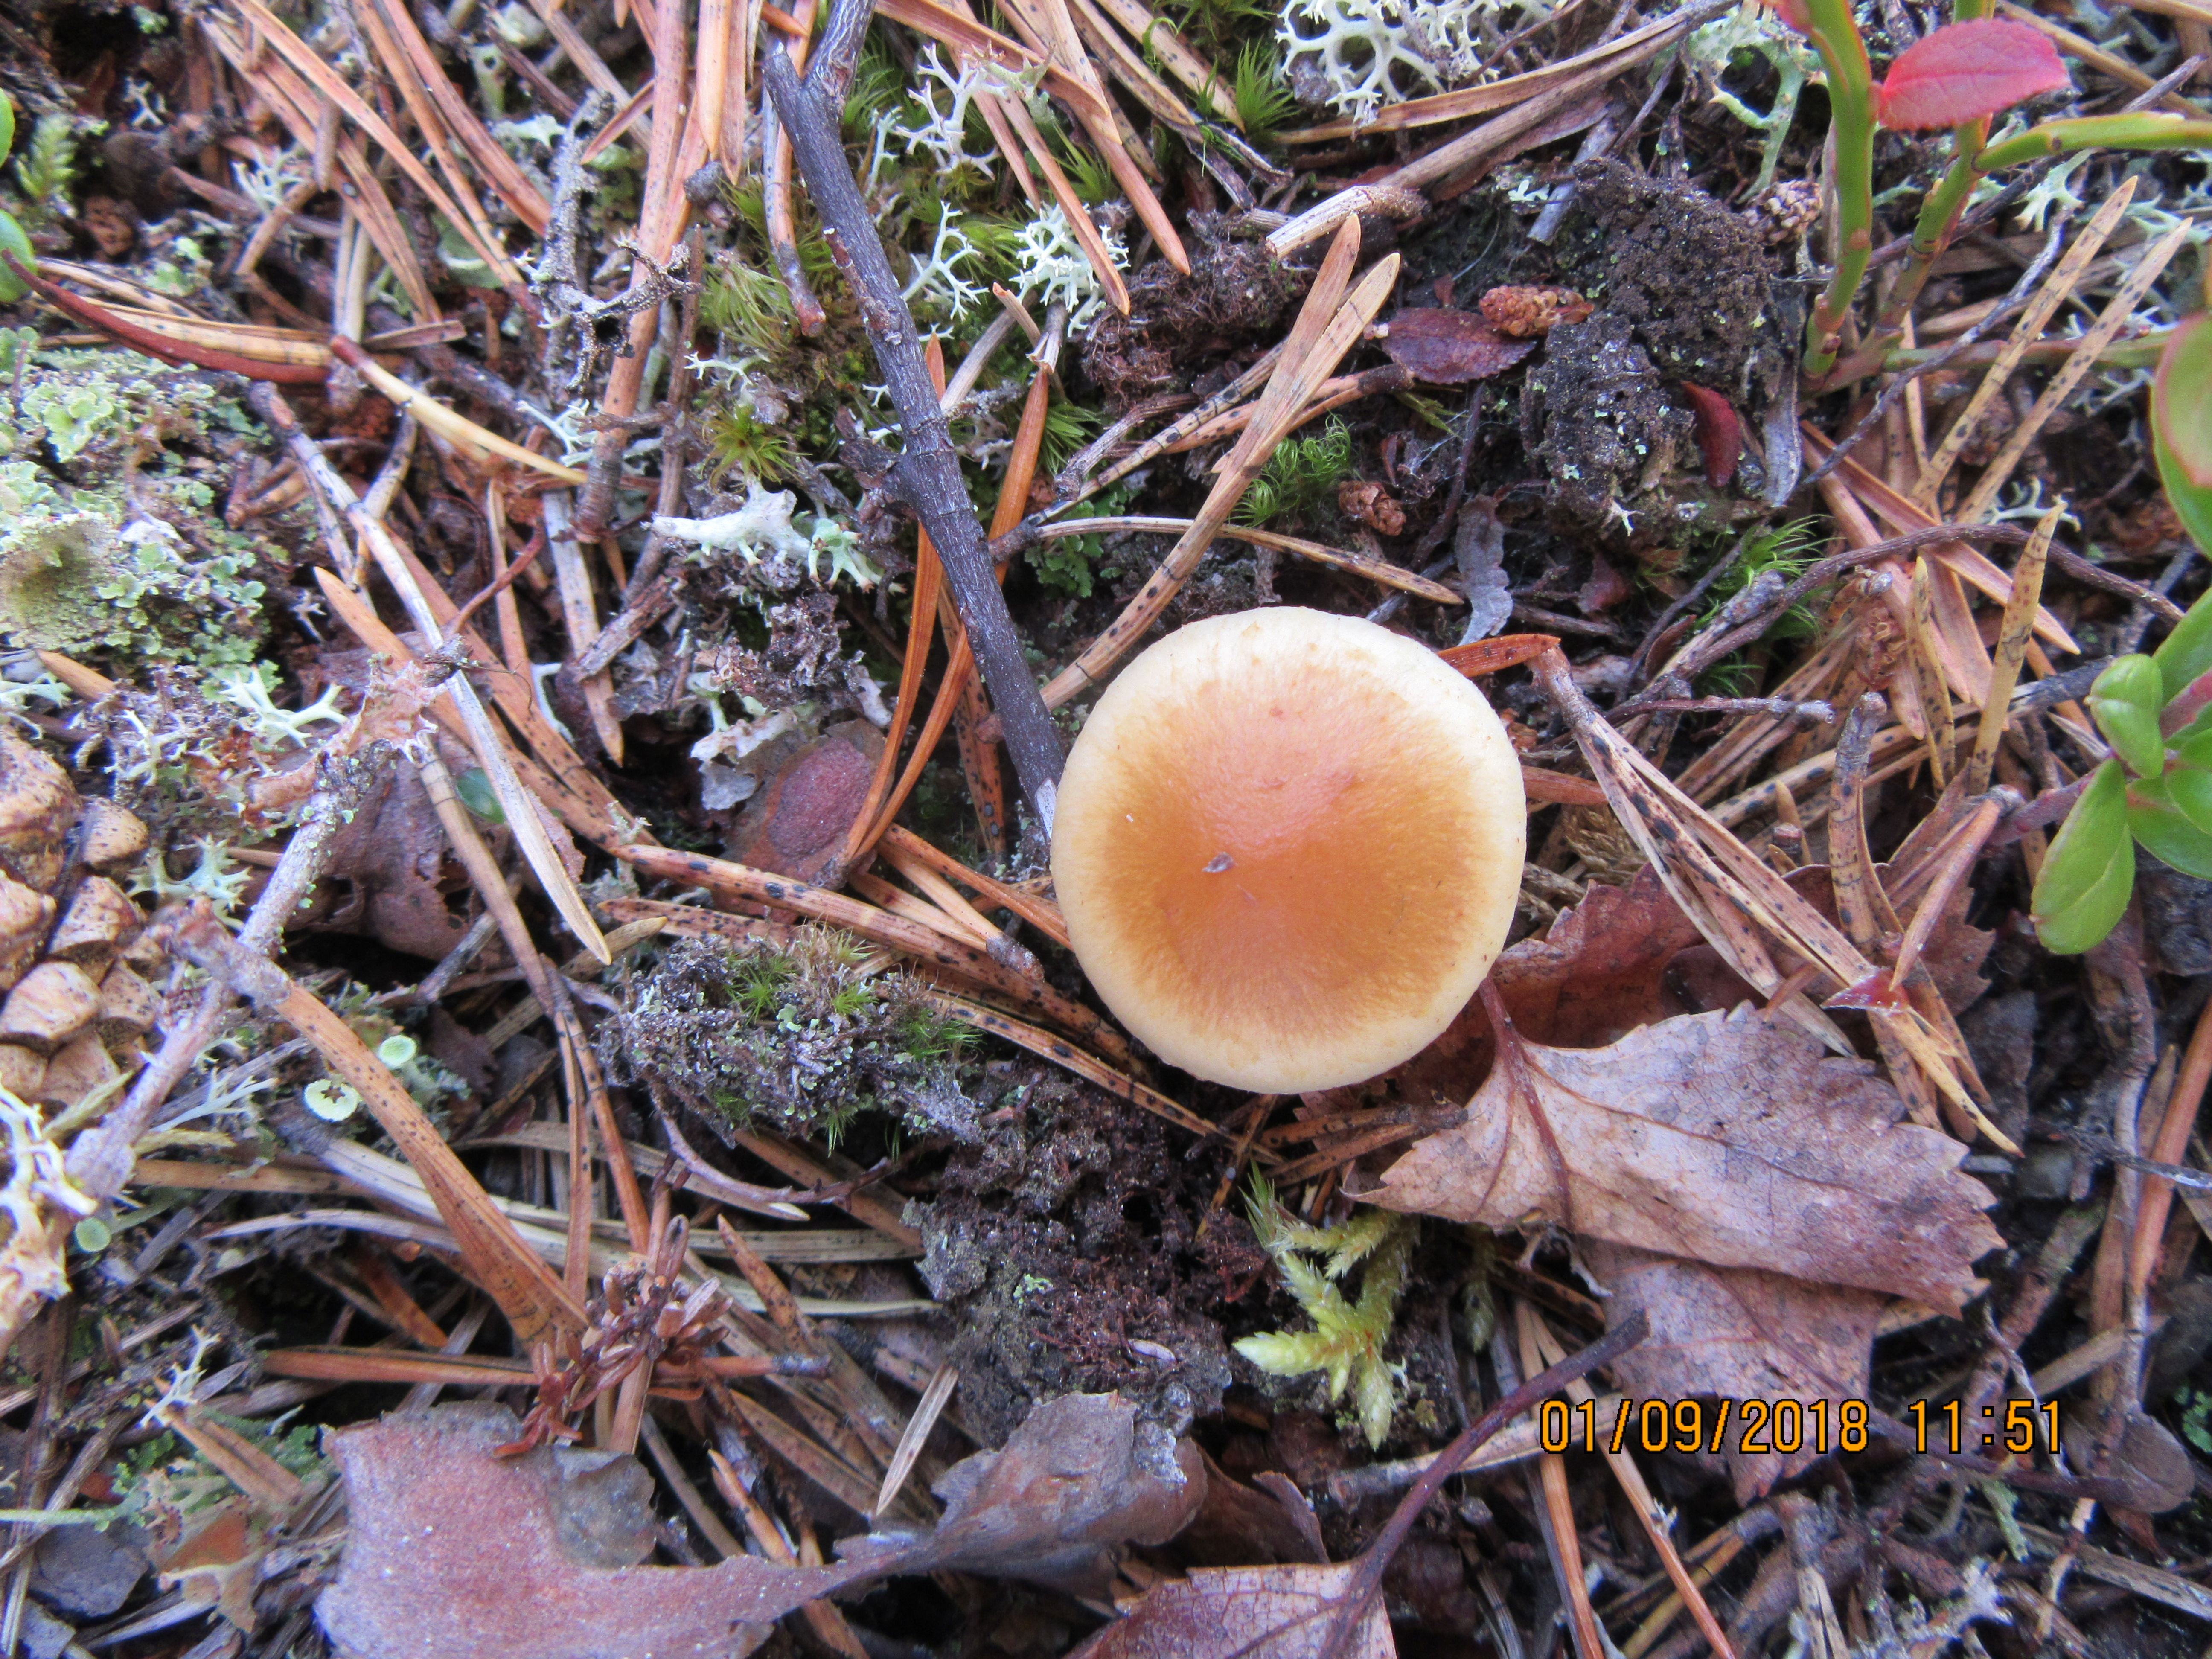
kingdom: Fungi
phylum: Basidiomycota
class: Agaricomycetes
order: Agaricales
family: Strophariaceae
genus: Pholiota
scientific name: Pholiota mixta
